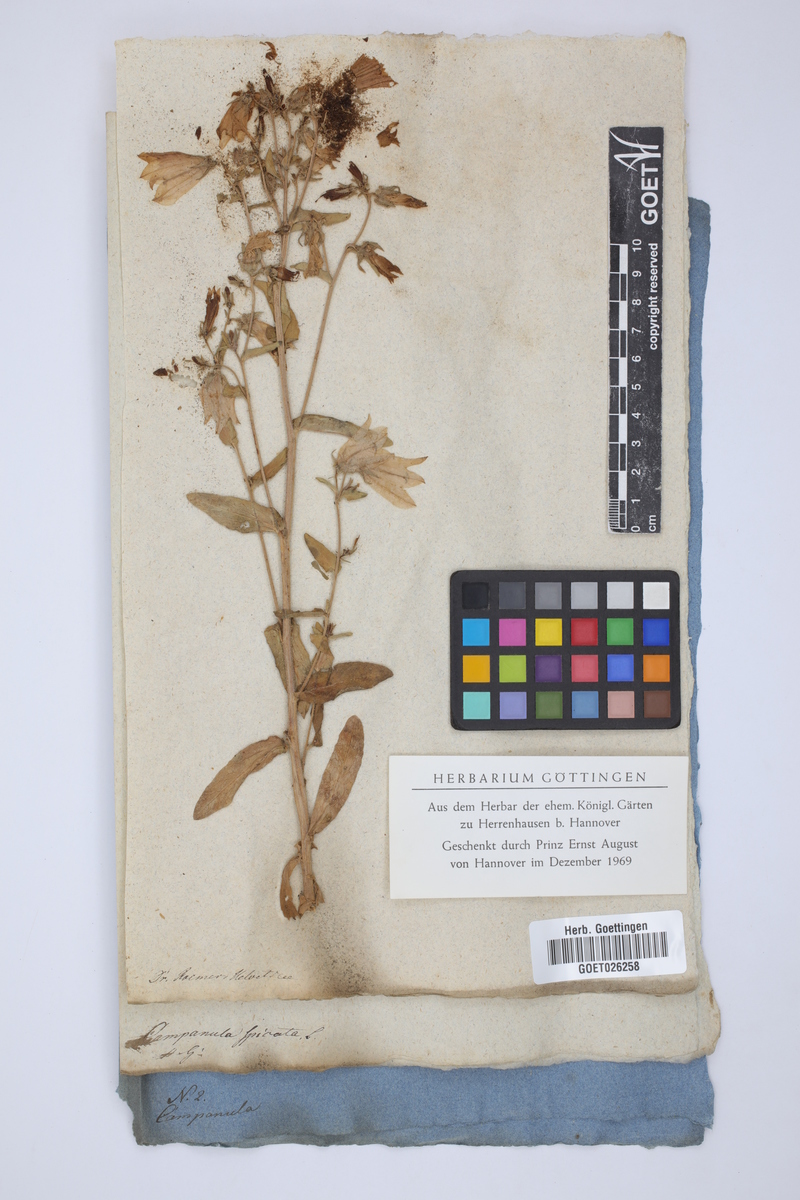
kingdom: Plantae
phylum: Tracheophyta
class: Magnoliopsida
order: Asterales
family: Campanulaceae
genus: Campanula
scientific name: Campanula spicata
